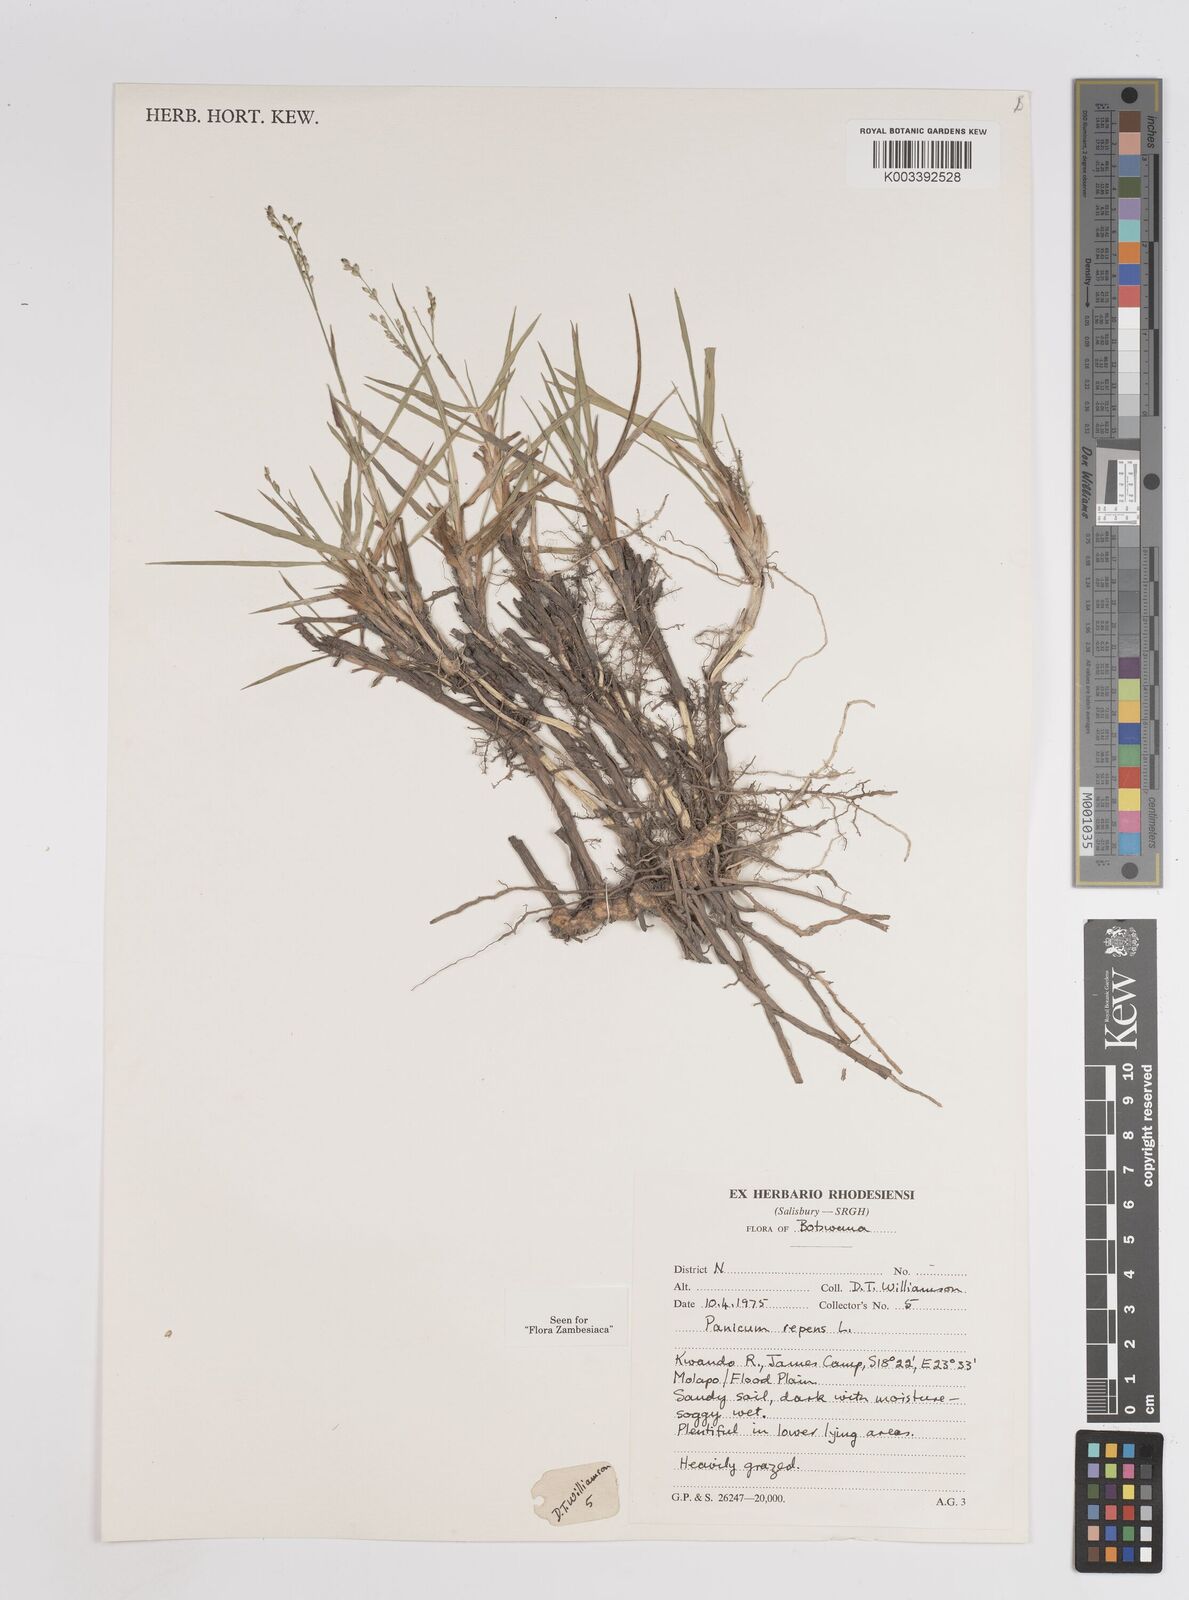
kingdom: Plantae
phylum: Tracheophyta
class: Liliopsida
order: Poales
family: Poaceae
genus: Panicum
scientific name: Panicum repens
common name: Torpedo grass
